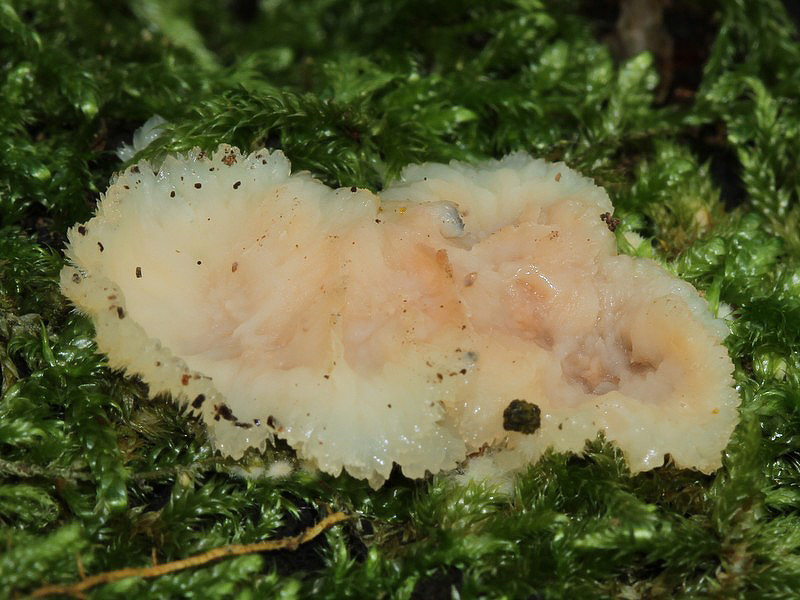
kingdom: Fungi
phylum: Basidiomycota
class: Agaricomycetes
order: Polyporales
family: Meruliaceae
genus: Phlebia
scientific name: Phlebia tremellosa
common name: bævrende åresvamp
